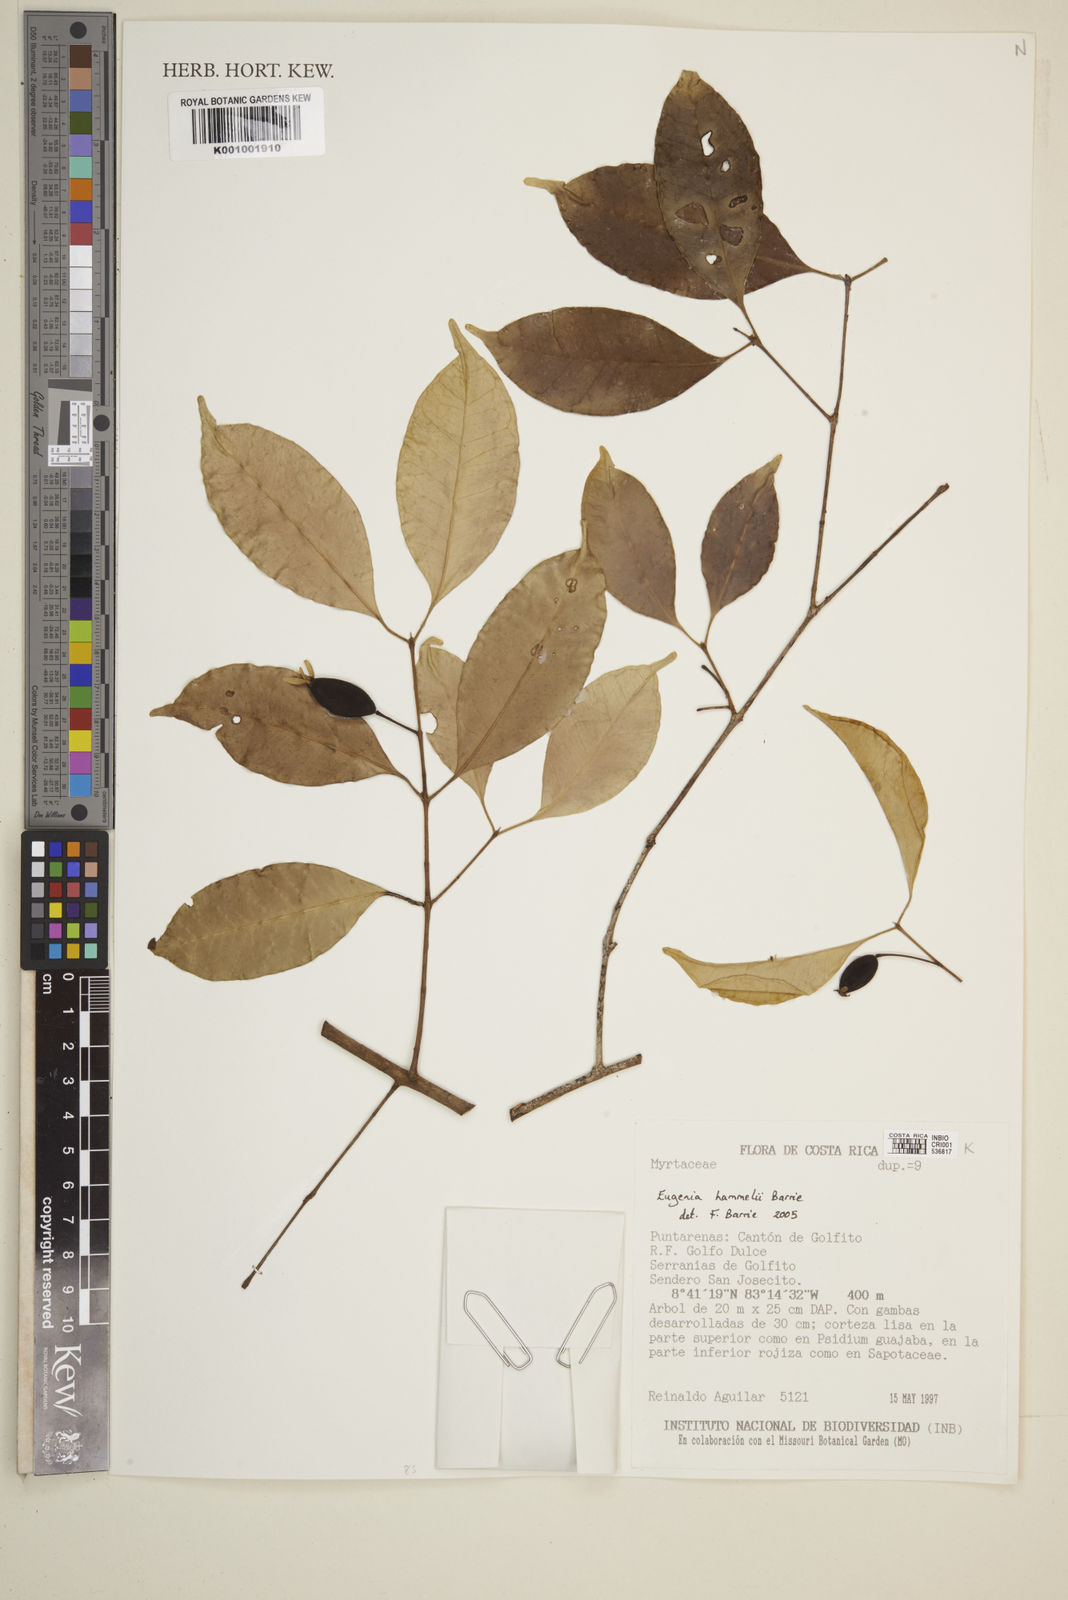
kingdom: Plantae
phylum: Tracheophyta
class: Magnoliopsida
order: Myrtales
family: Myrtaceae
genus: Eugenia
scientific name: Eugenia hammelii
